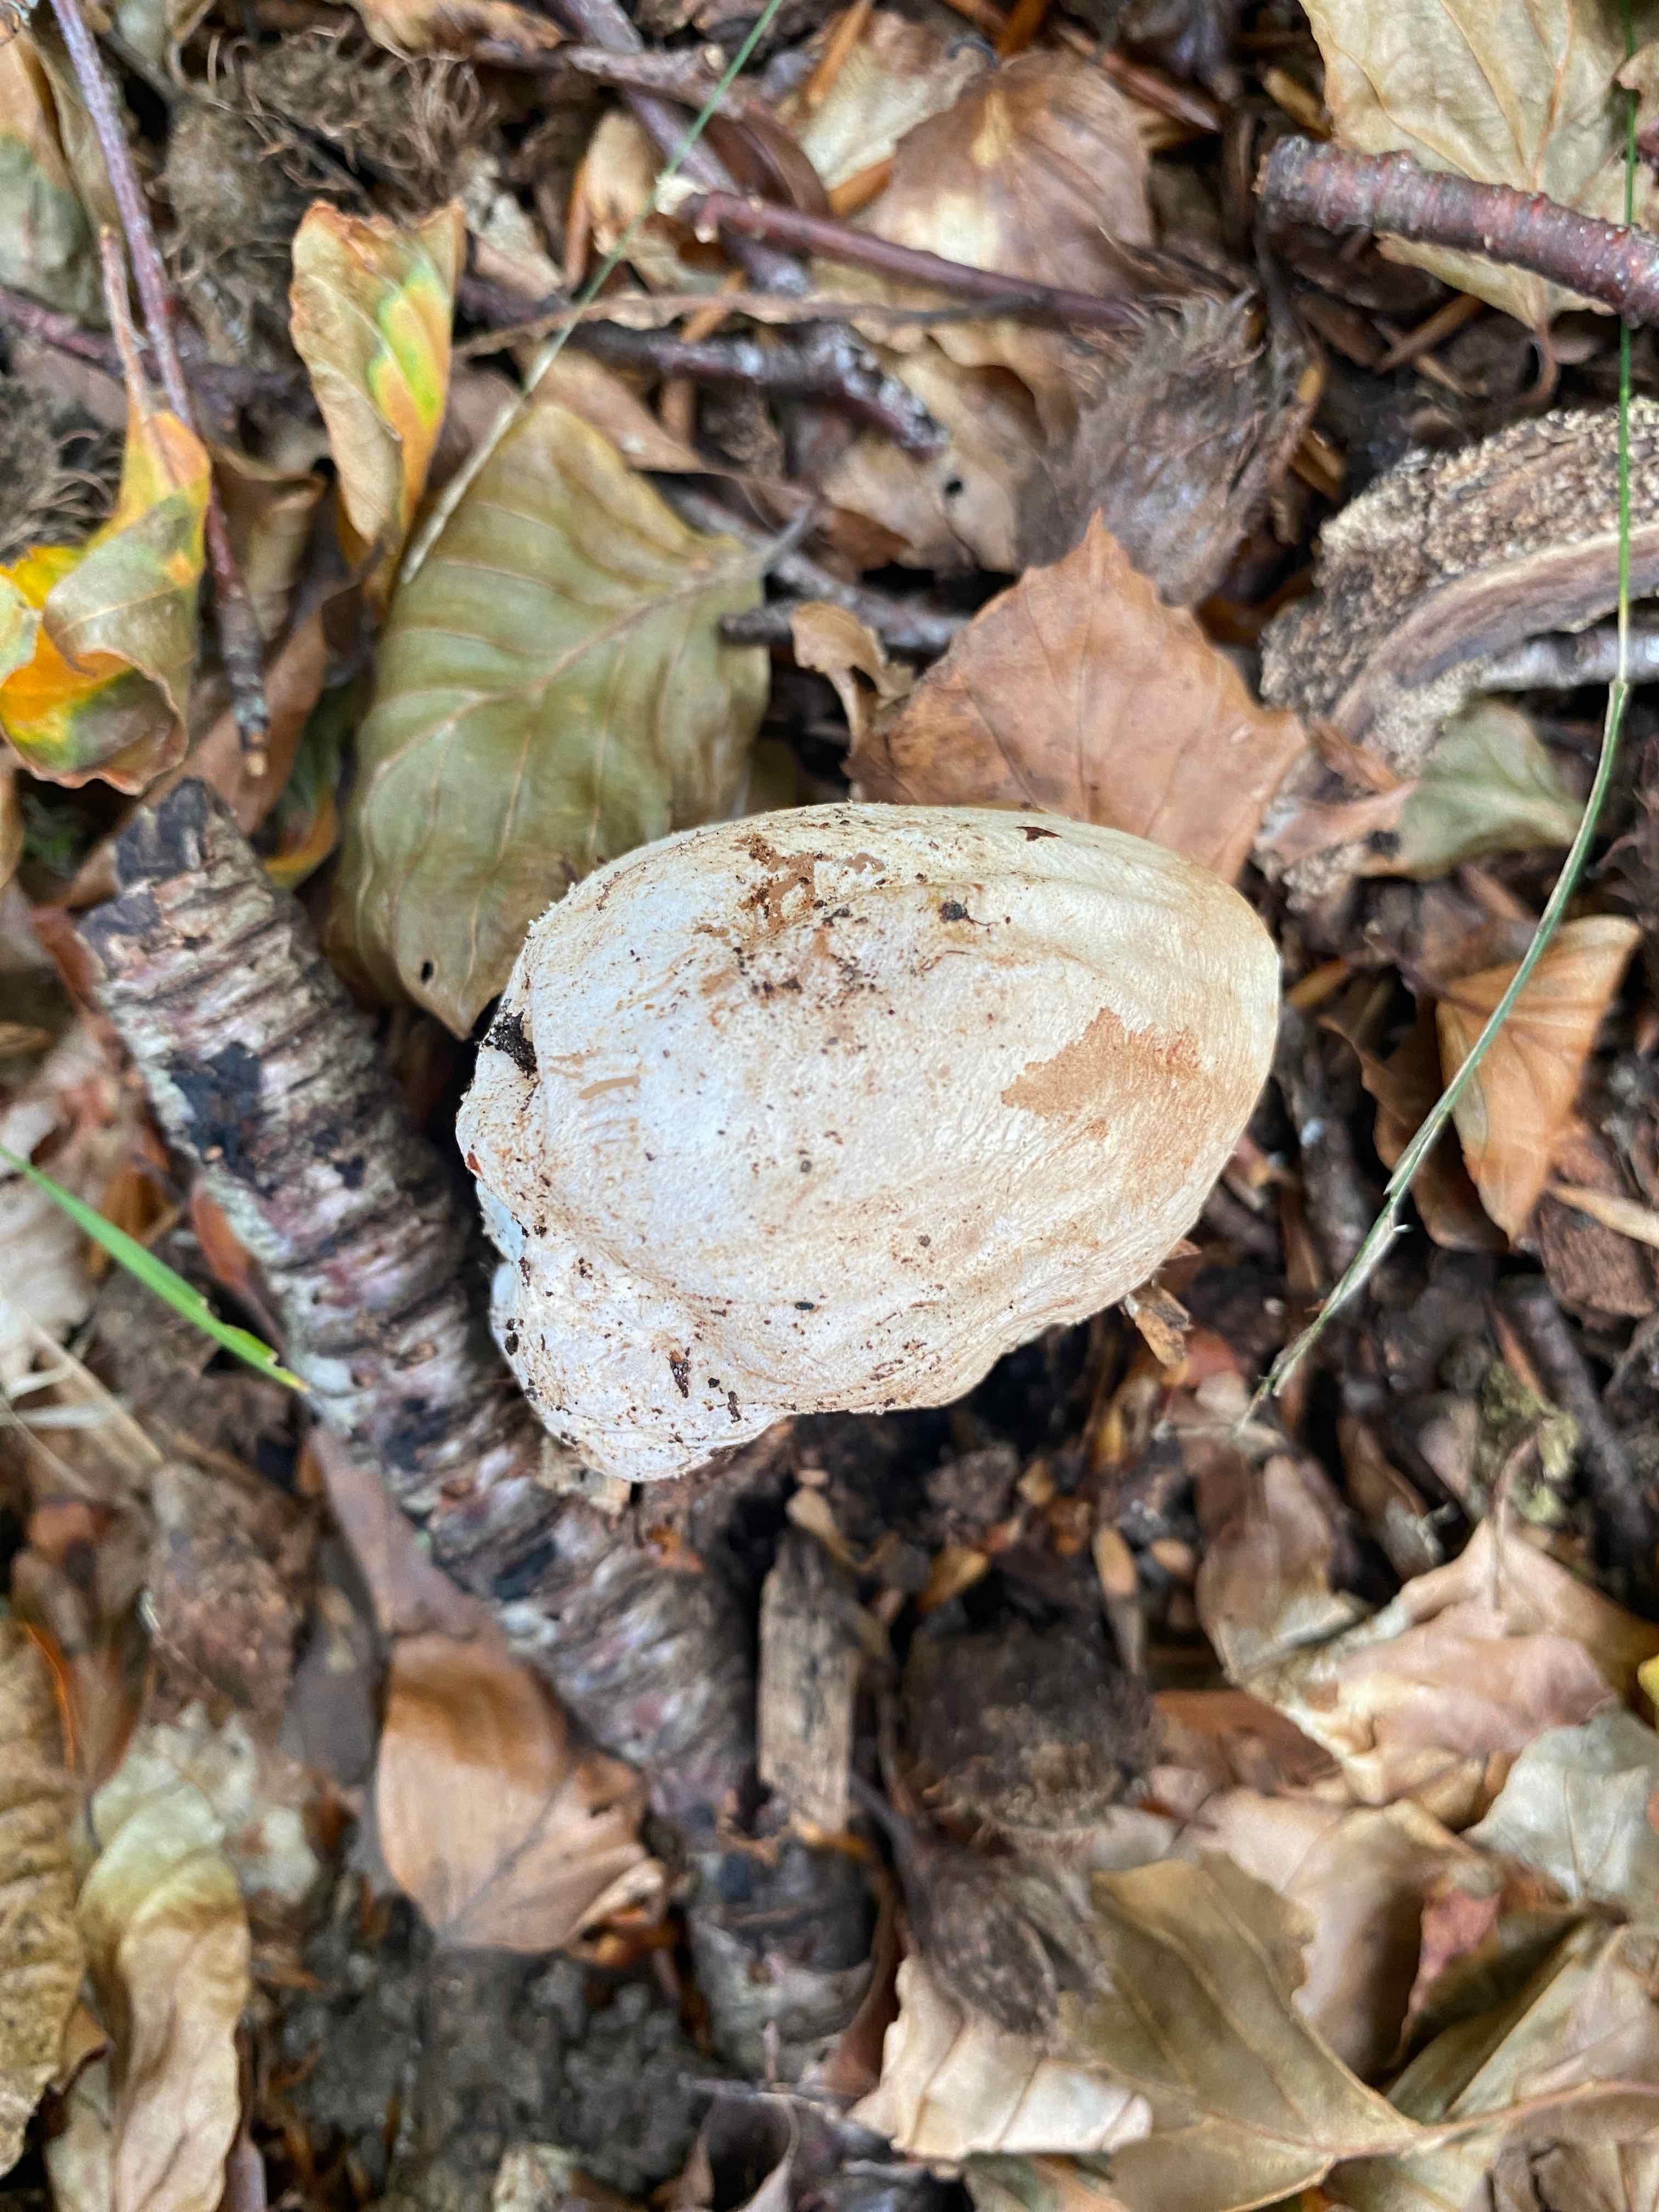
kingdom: Fungi
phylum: Basidiomycota
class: Agaricomycetes
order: Phallales
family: Phallaceae
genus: Phallus
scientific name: Phallus impudicus
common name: almindelig stinksvamp
